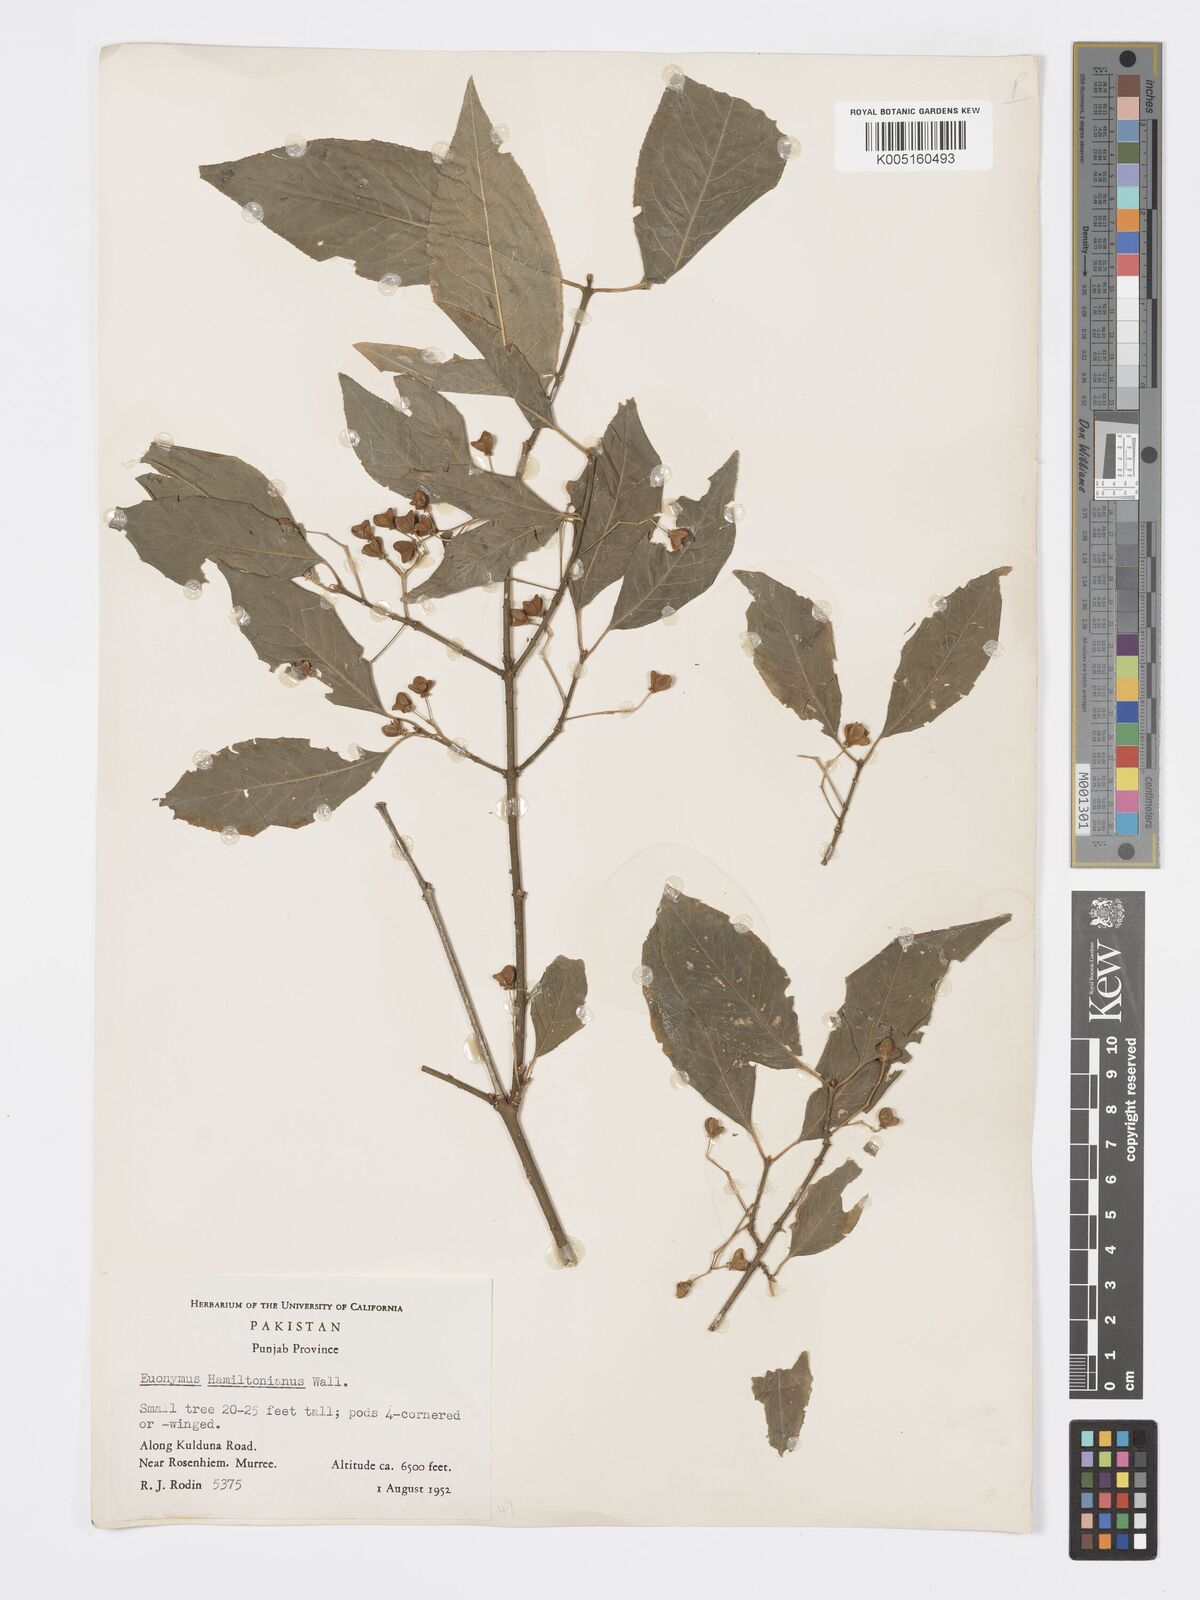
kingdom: Plantae
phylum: Tracheophyta
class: Magnoliopsida
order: Celastrales
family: Celastraceae
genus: Euonymus
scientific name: Euonymus
